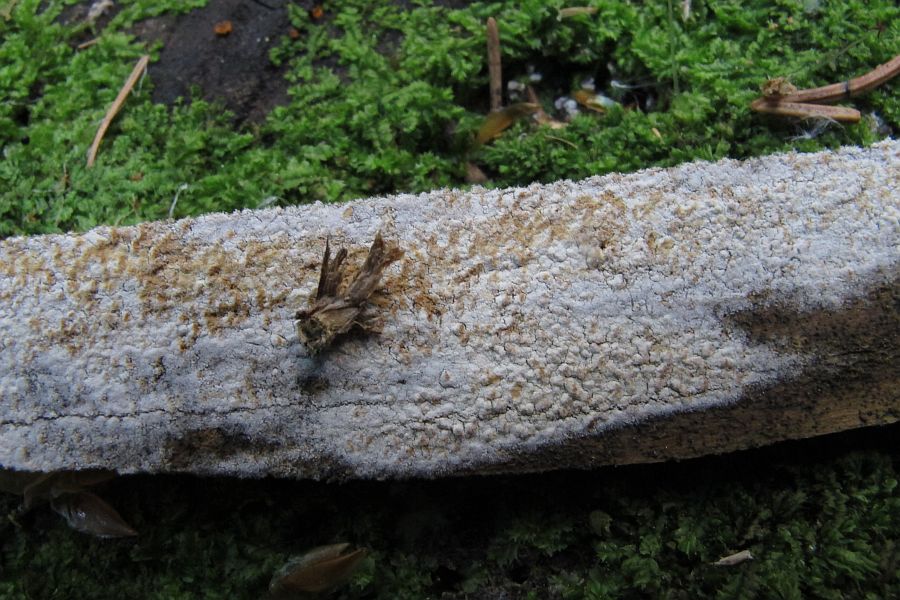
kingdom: Fungi
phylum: Basidiomycota
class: Agaricomycetes
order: Cantharellales
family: Botryobasidiaceae
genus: Botryobasidium
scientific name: Botryobasidium capitatum
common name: kalkhvid spindhinde
